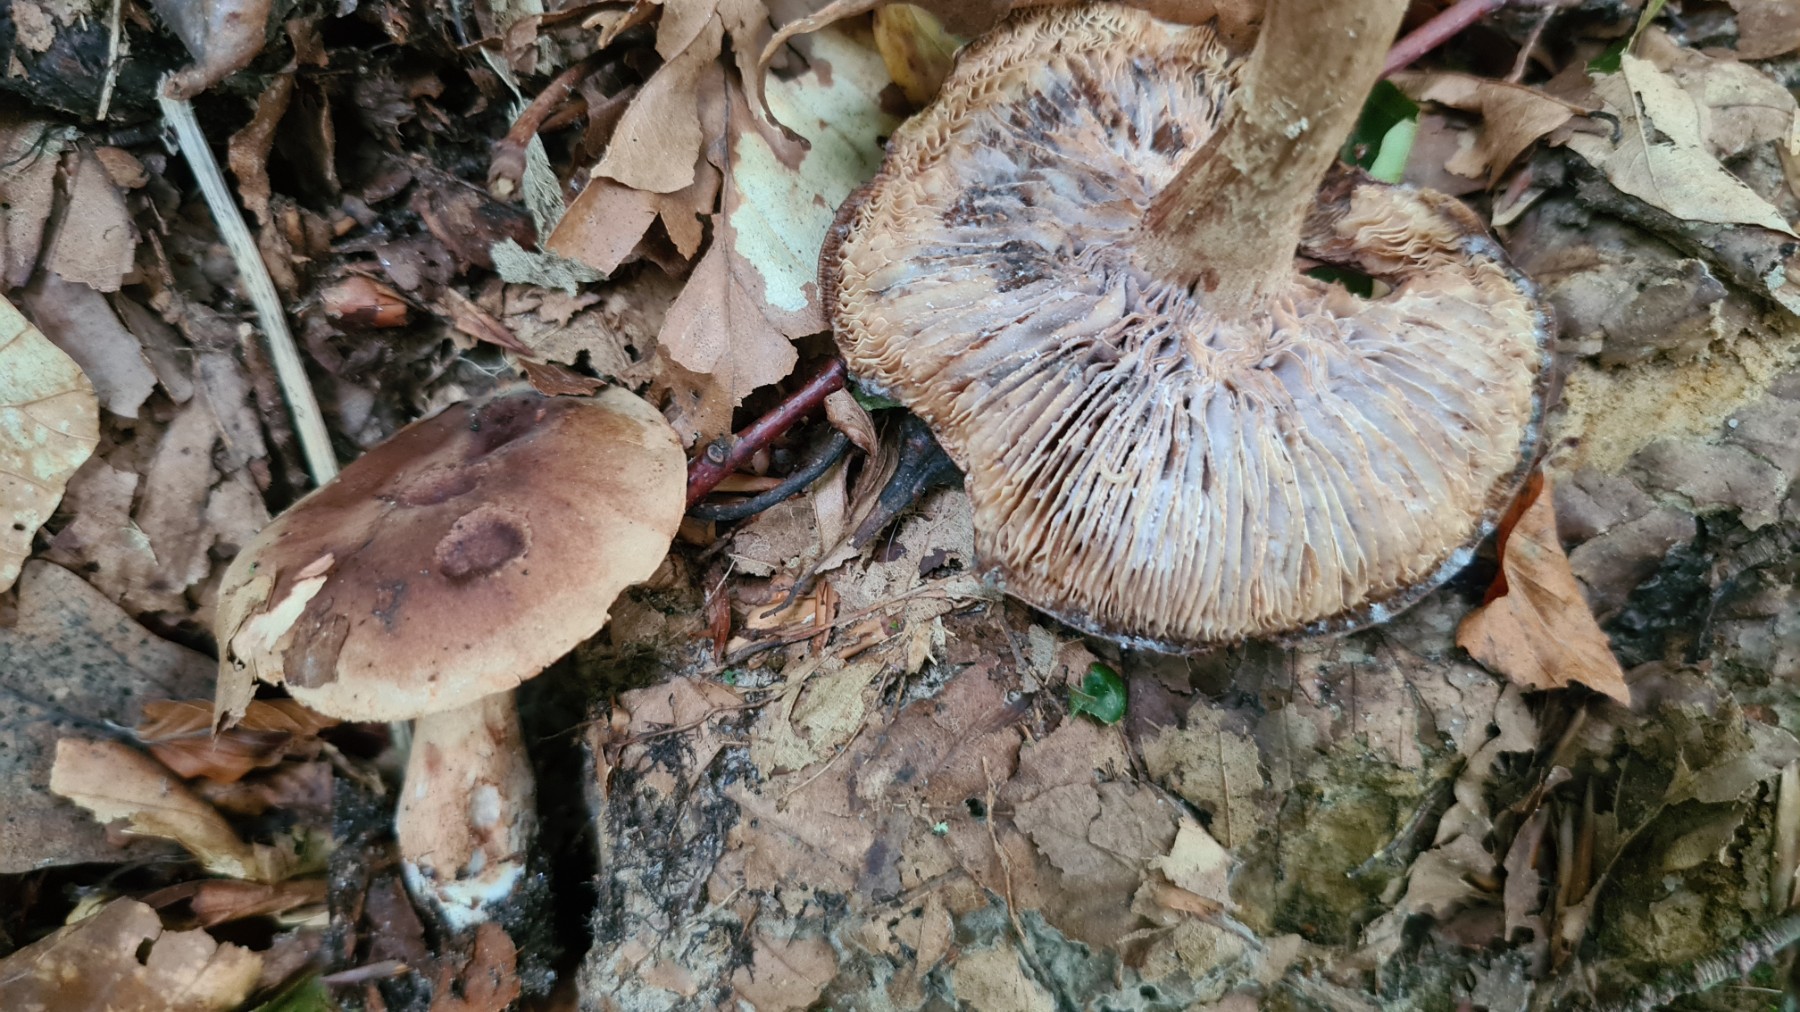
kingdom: Fungi
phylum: Basidiomycota
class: Agaricomycetes
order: Agaricales
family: Tricholomataceae
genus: Tricholoma
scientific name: Tricholoma ustale
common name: sveden ridderhat
